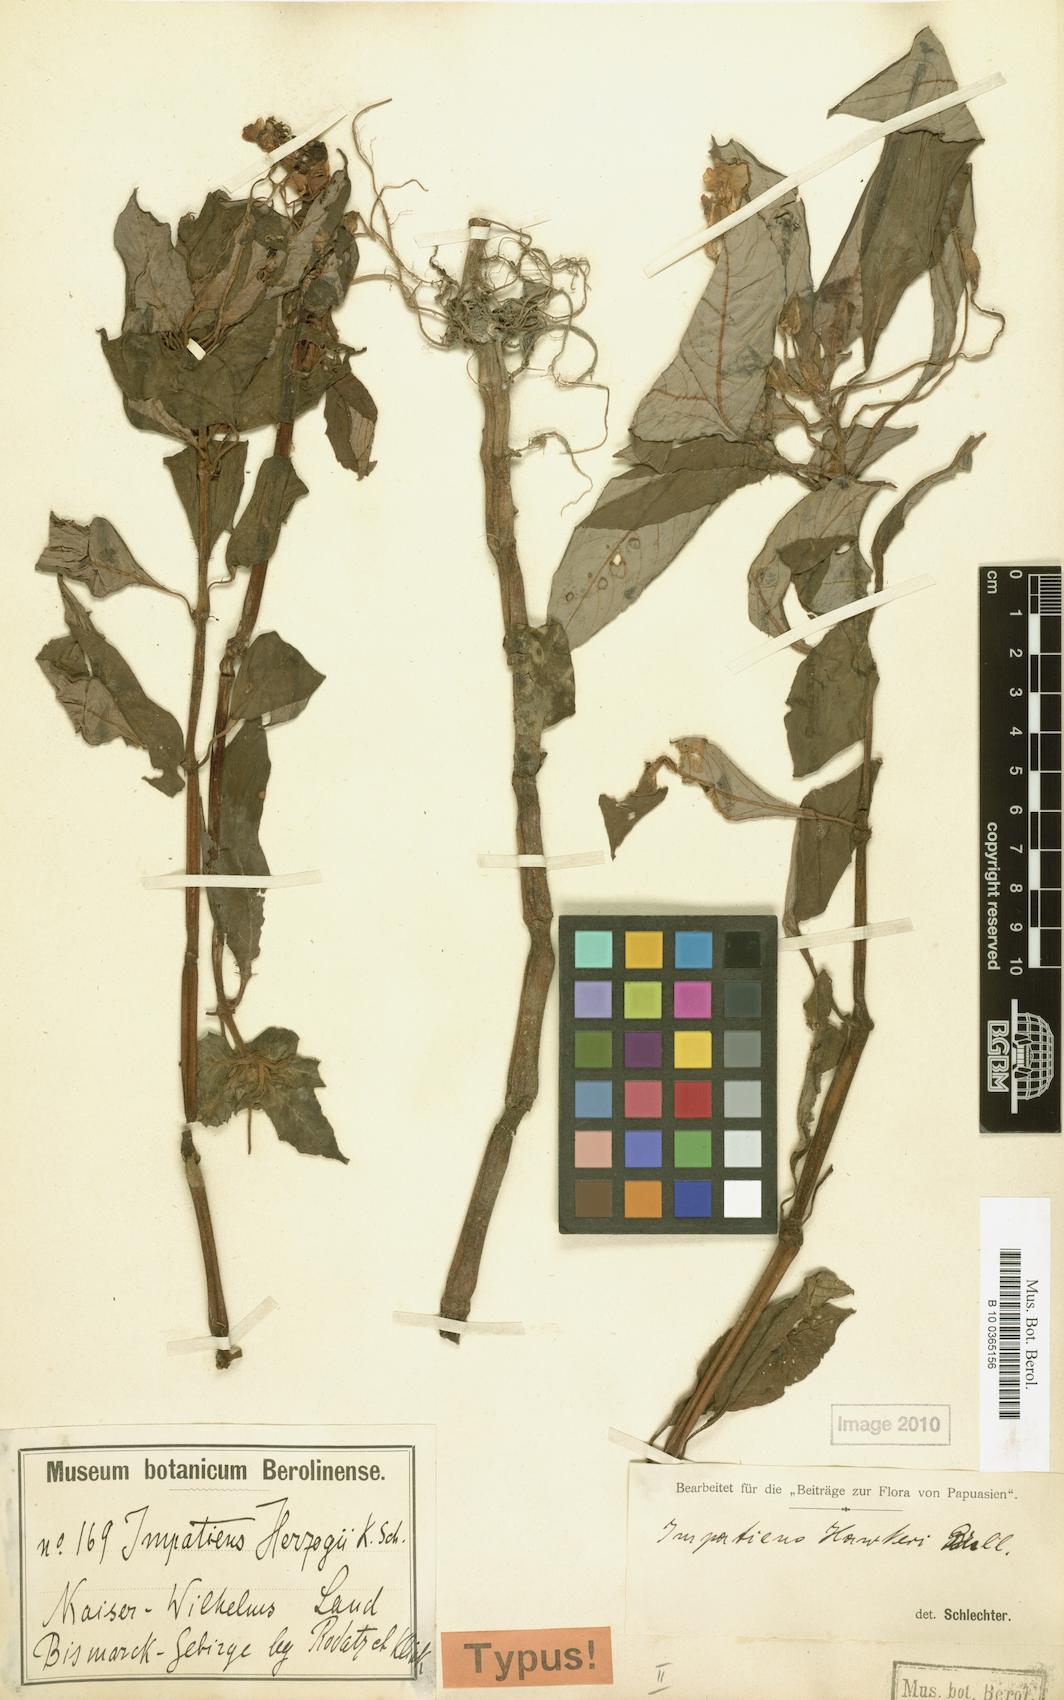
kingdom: Plantae
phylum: Tracheophyta
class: Magnoliopsida
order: Ericales
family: Balsaminaceae
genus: Impatiens
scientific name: Impatiens hawkeri
